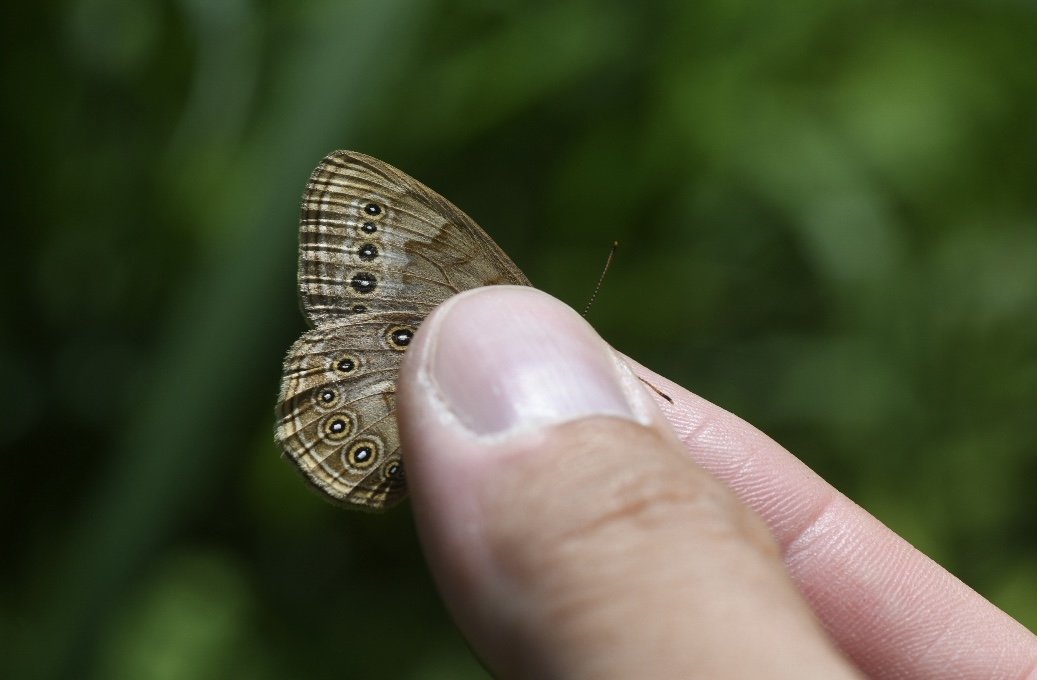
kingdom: Animalia
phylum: Arthropoda
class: Insecta
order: Lepidoptera
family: Nymphalidae
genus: Lethe
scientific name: Lethe eurydice
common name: Eyed Brown
